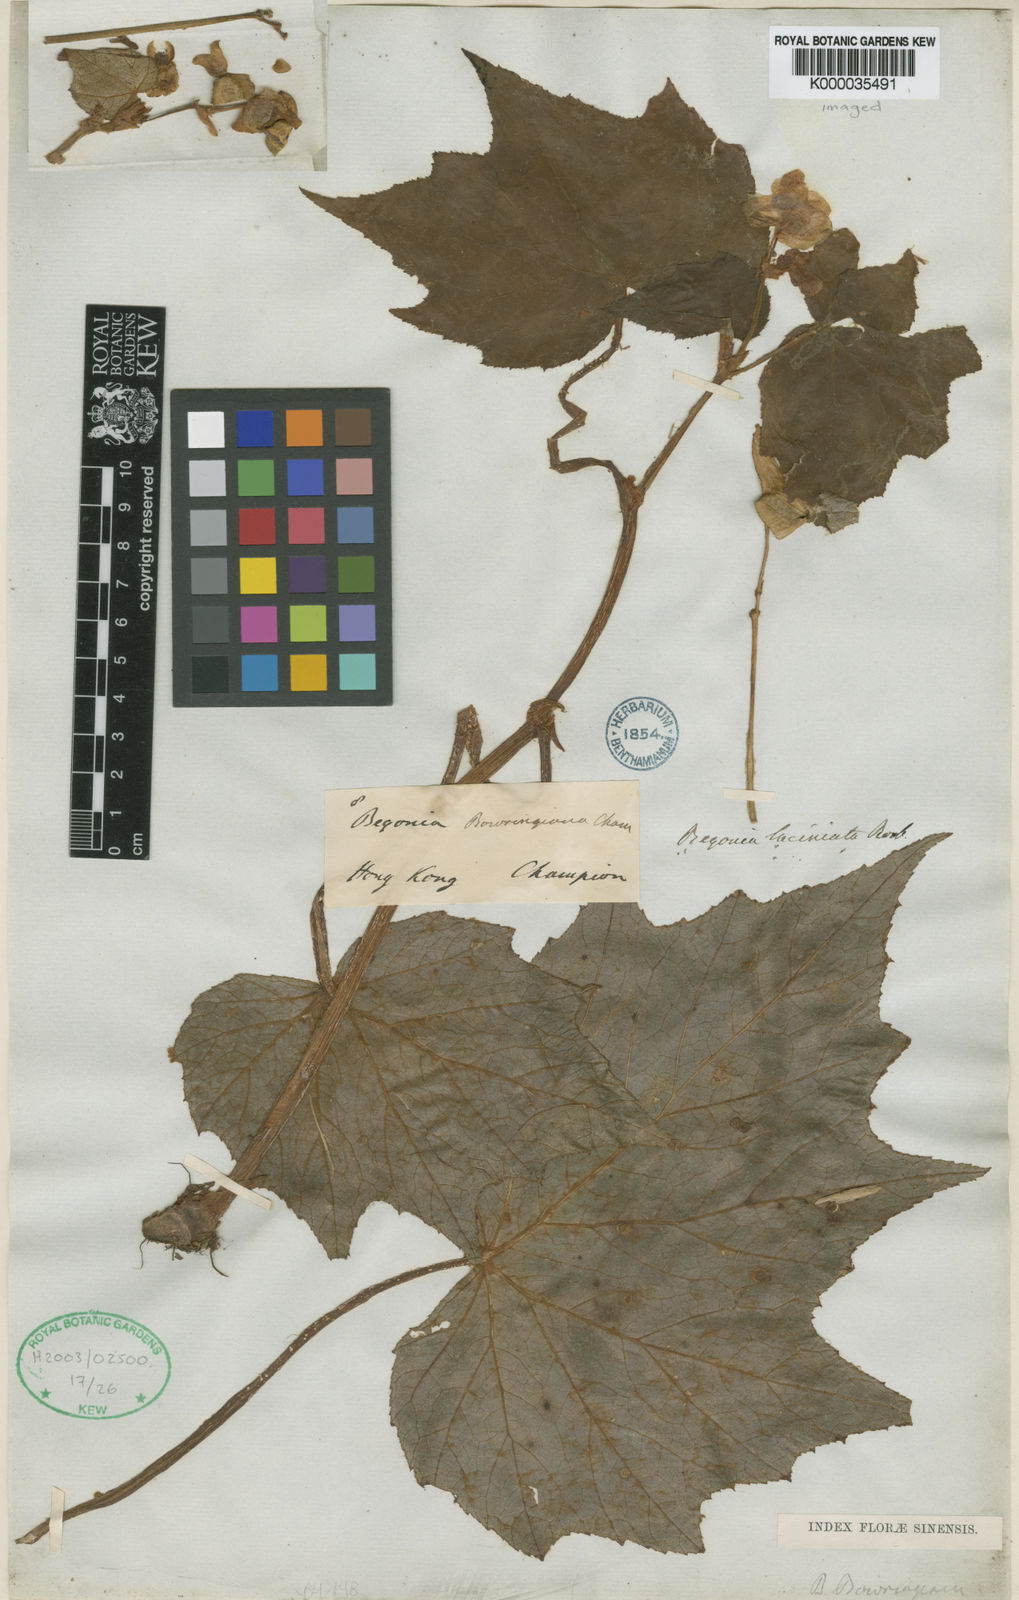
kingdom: Plantae
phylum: Tracheophyta
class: Magnoliopsida
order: Cucurbitales
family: Begoniaceae
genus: Begonia
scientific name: Begonia palmata
